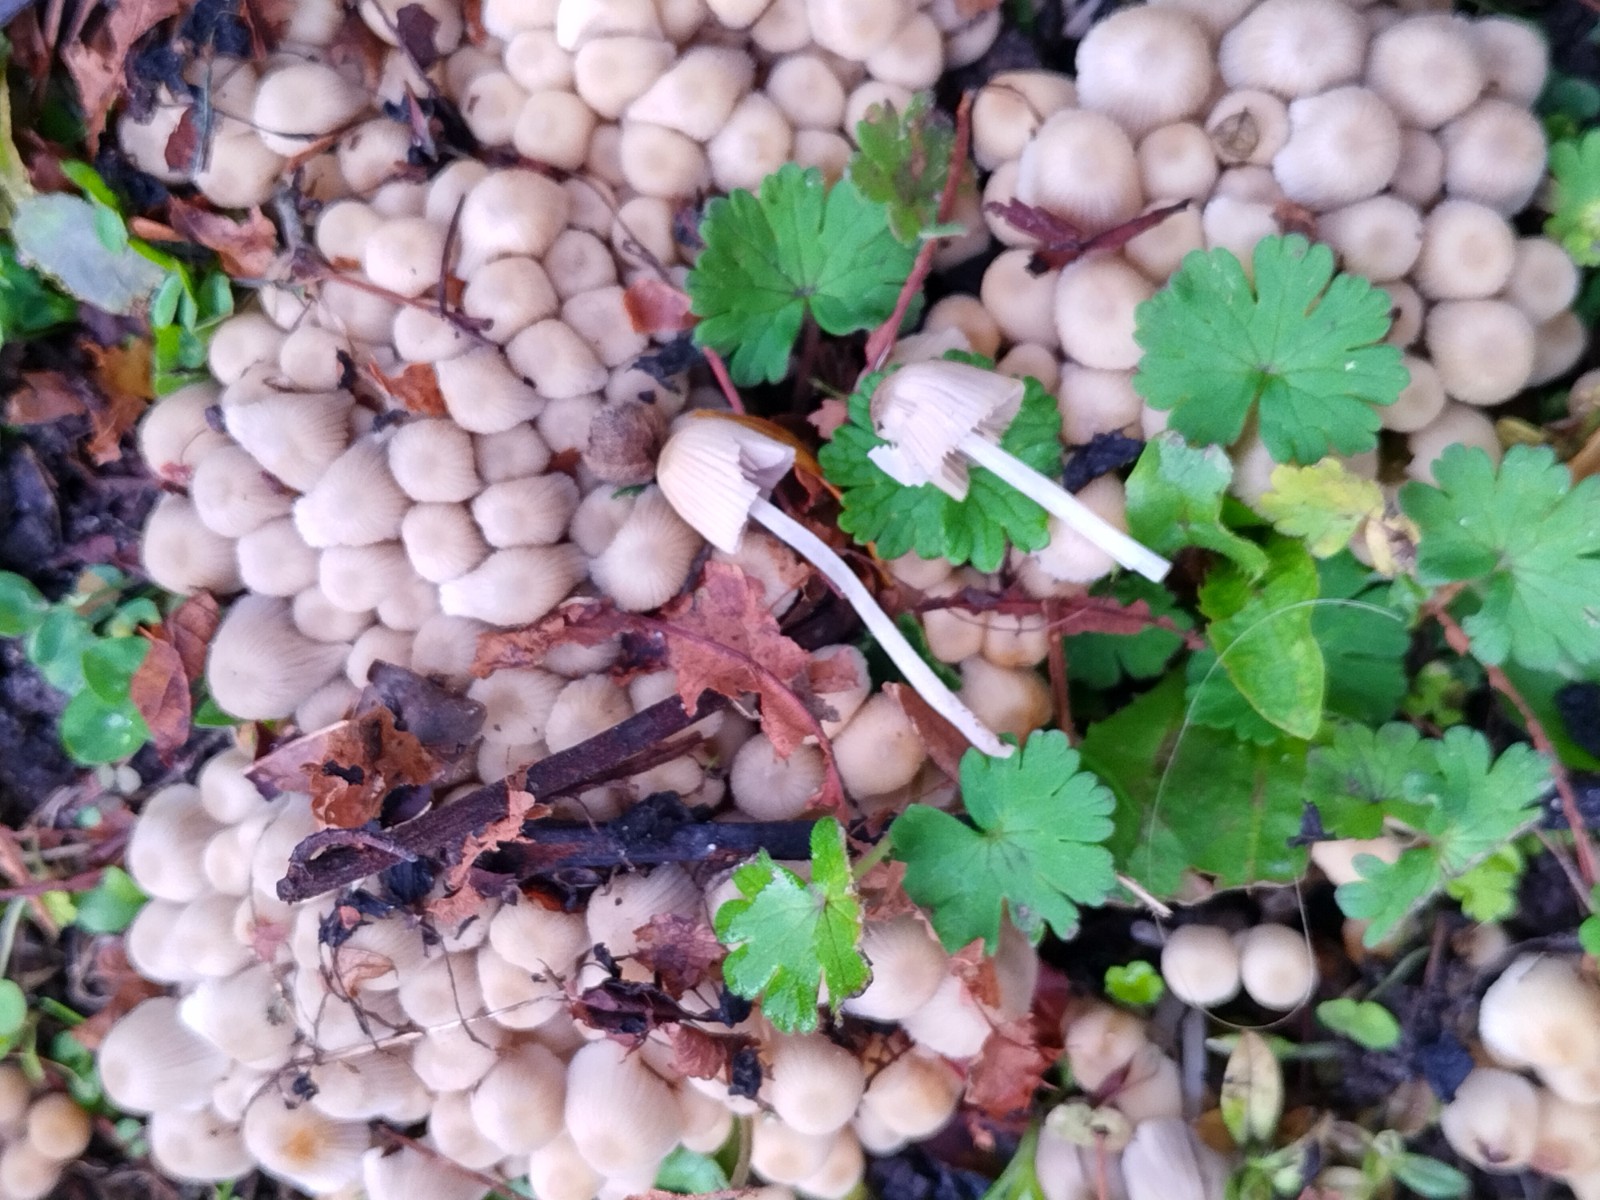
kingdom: Fungi
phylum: Basidiomycota
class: Agaricomycetes
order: Agaricales
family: Psathyrellaceae
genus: Coprinellus
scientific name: Coprinellus disseminatus
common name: bredsået blækhat
